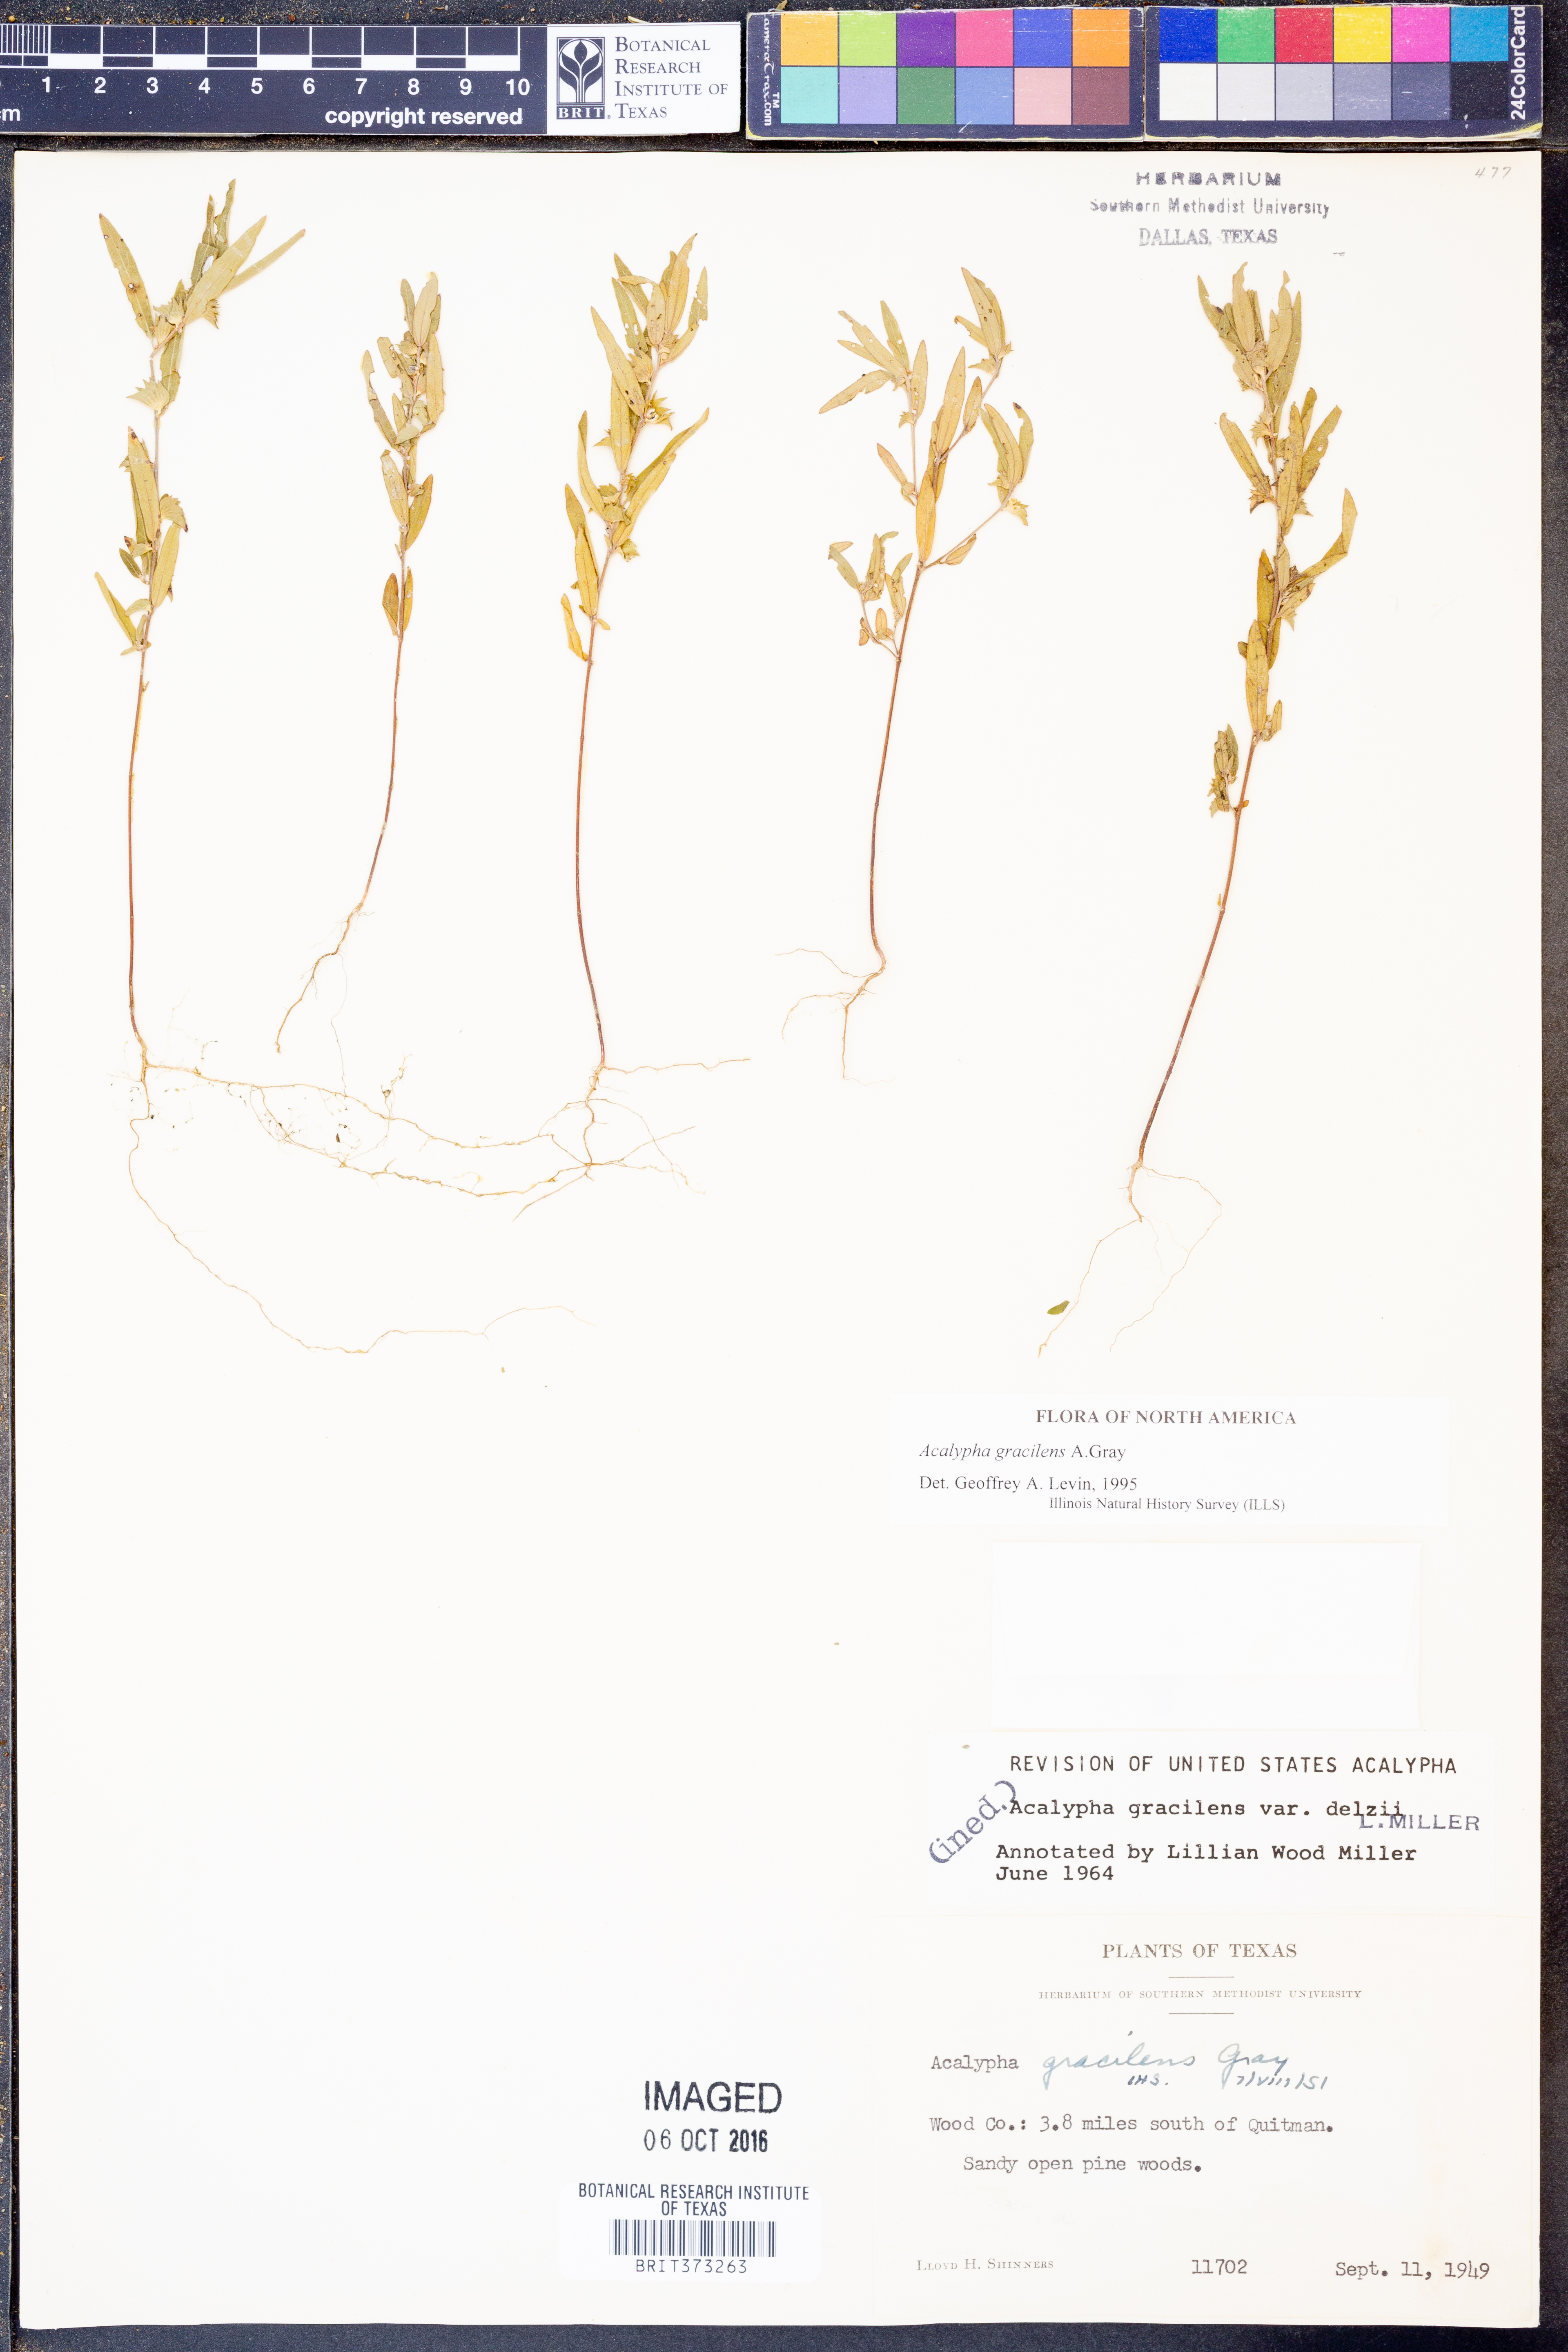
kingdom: Plantae
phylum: Tracheophyta
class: Magnoliopsida
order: Malpighiales
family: Euphorbiaceae
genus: Acalypha
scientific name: Acalypha gracilens
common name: Slender three-seeded mercury
